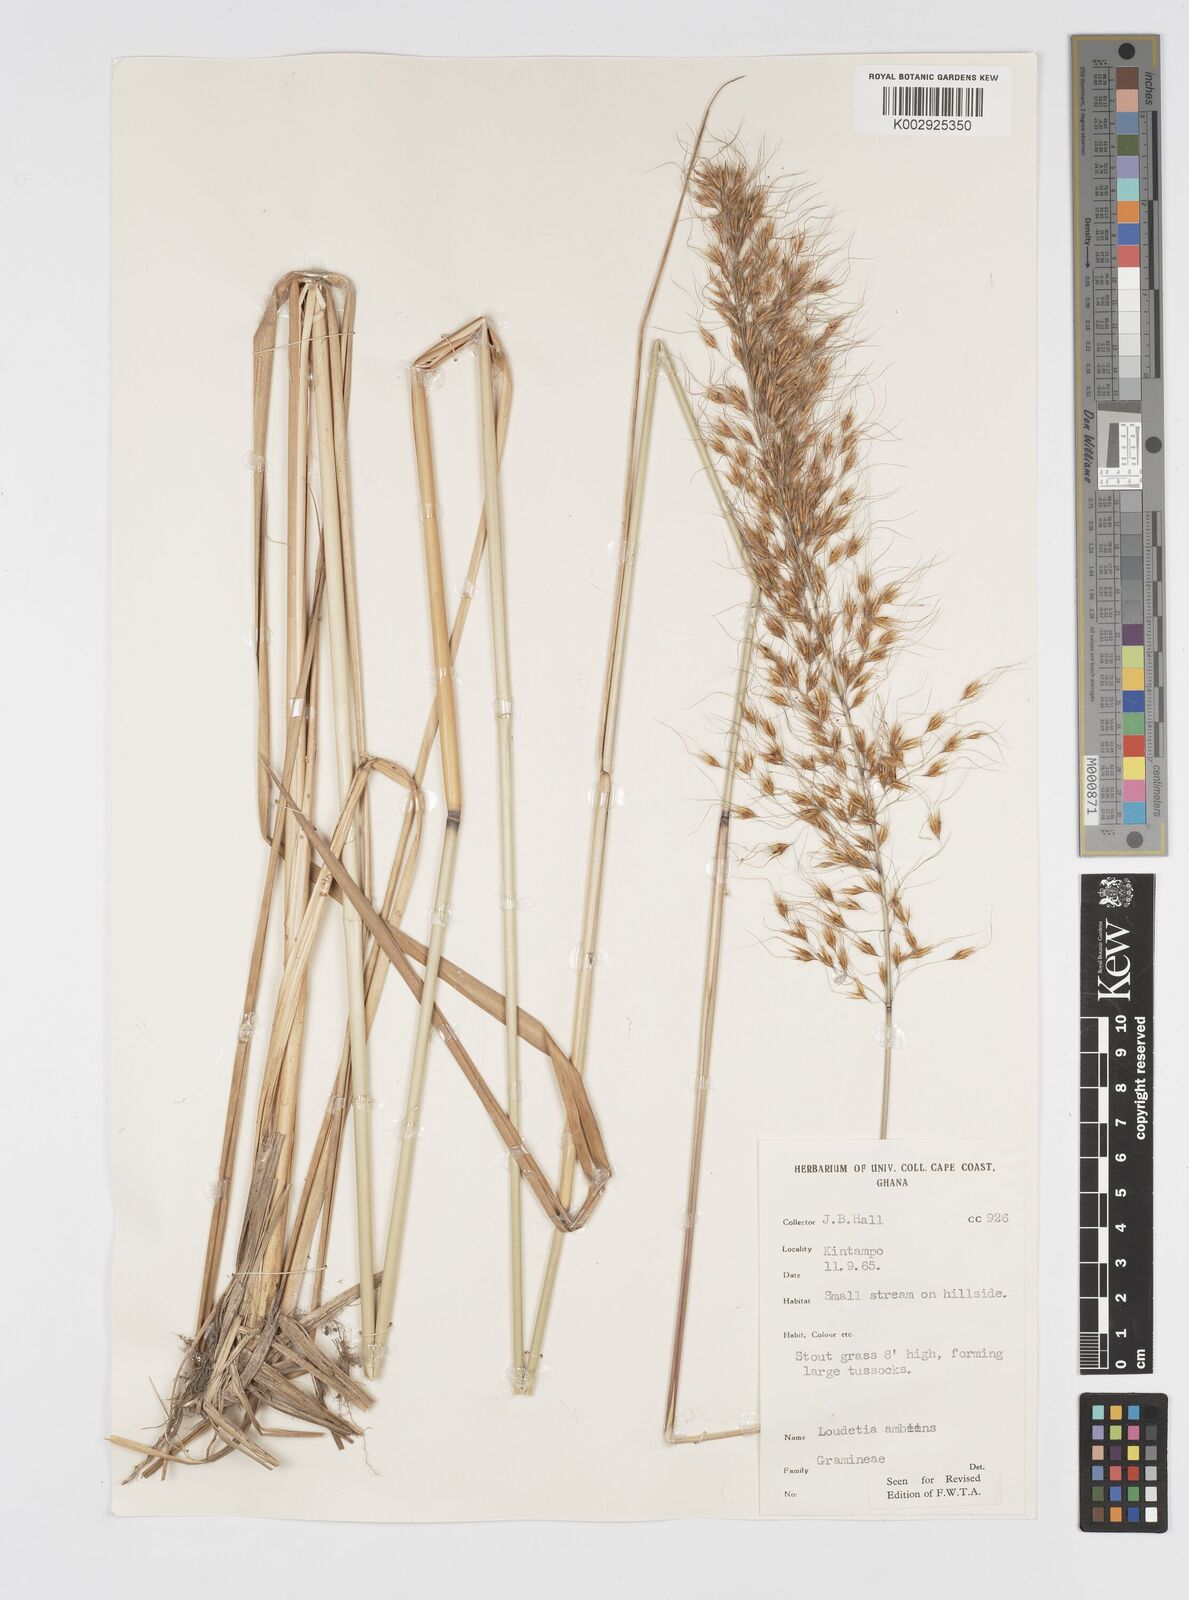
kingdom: Plantae
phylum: Tracheophyta
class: Liliopsida
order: Poales
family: Poaceae
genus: Loudetiopsis
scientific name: Loudetiopsis ambiens
